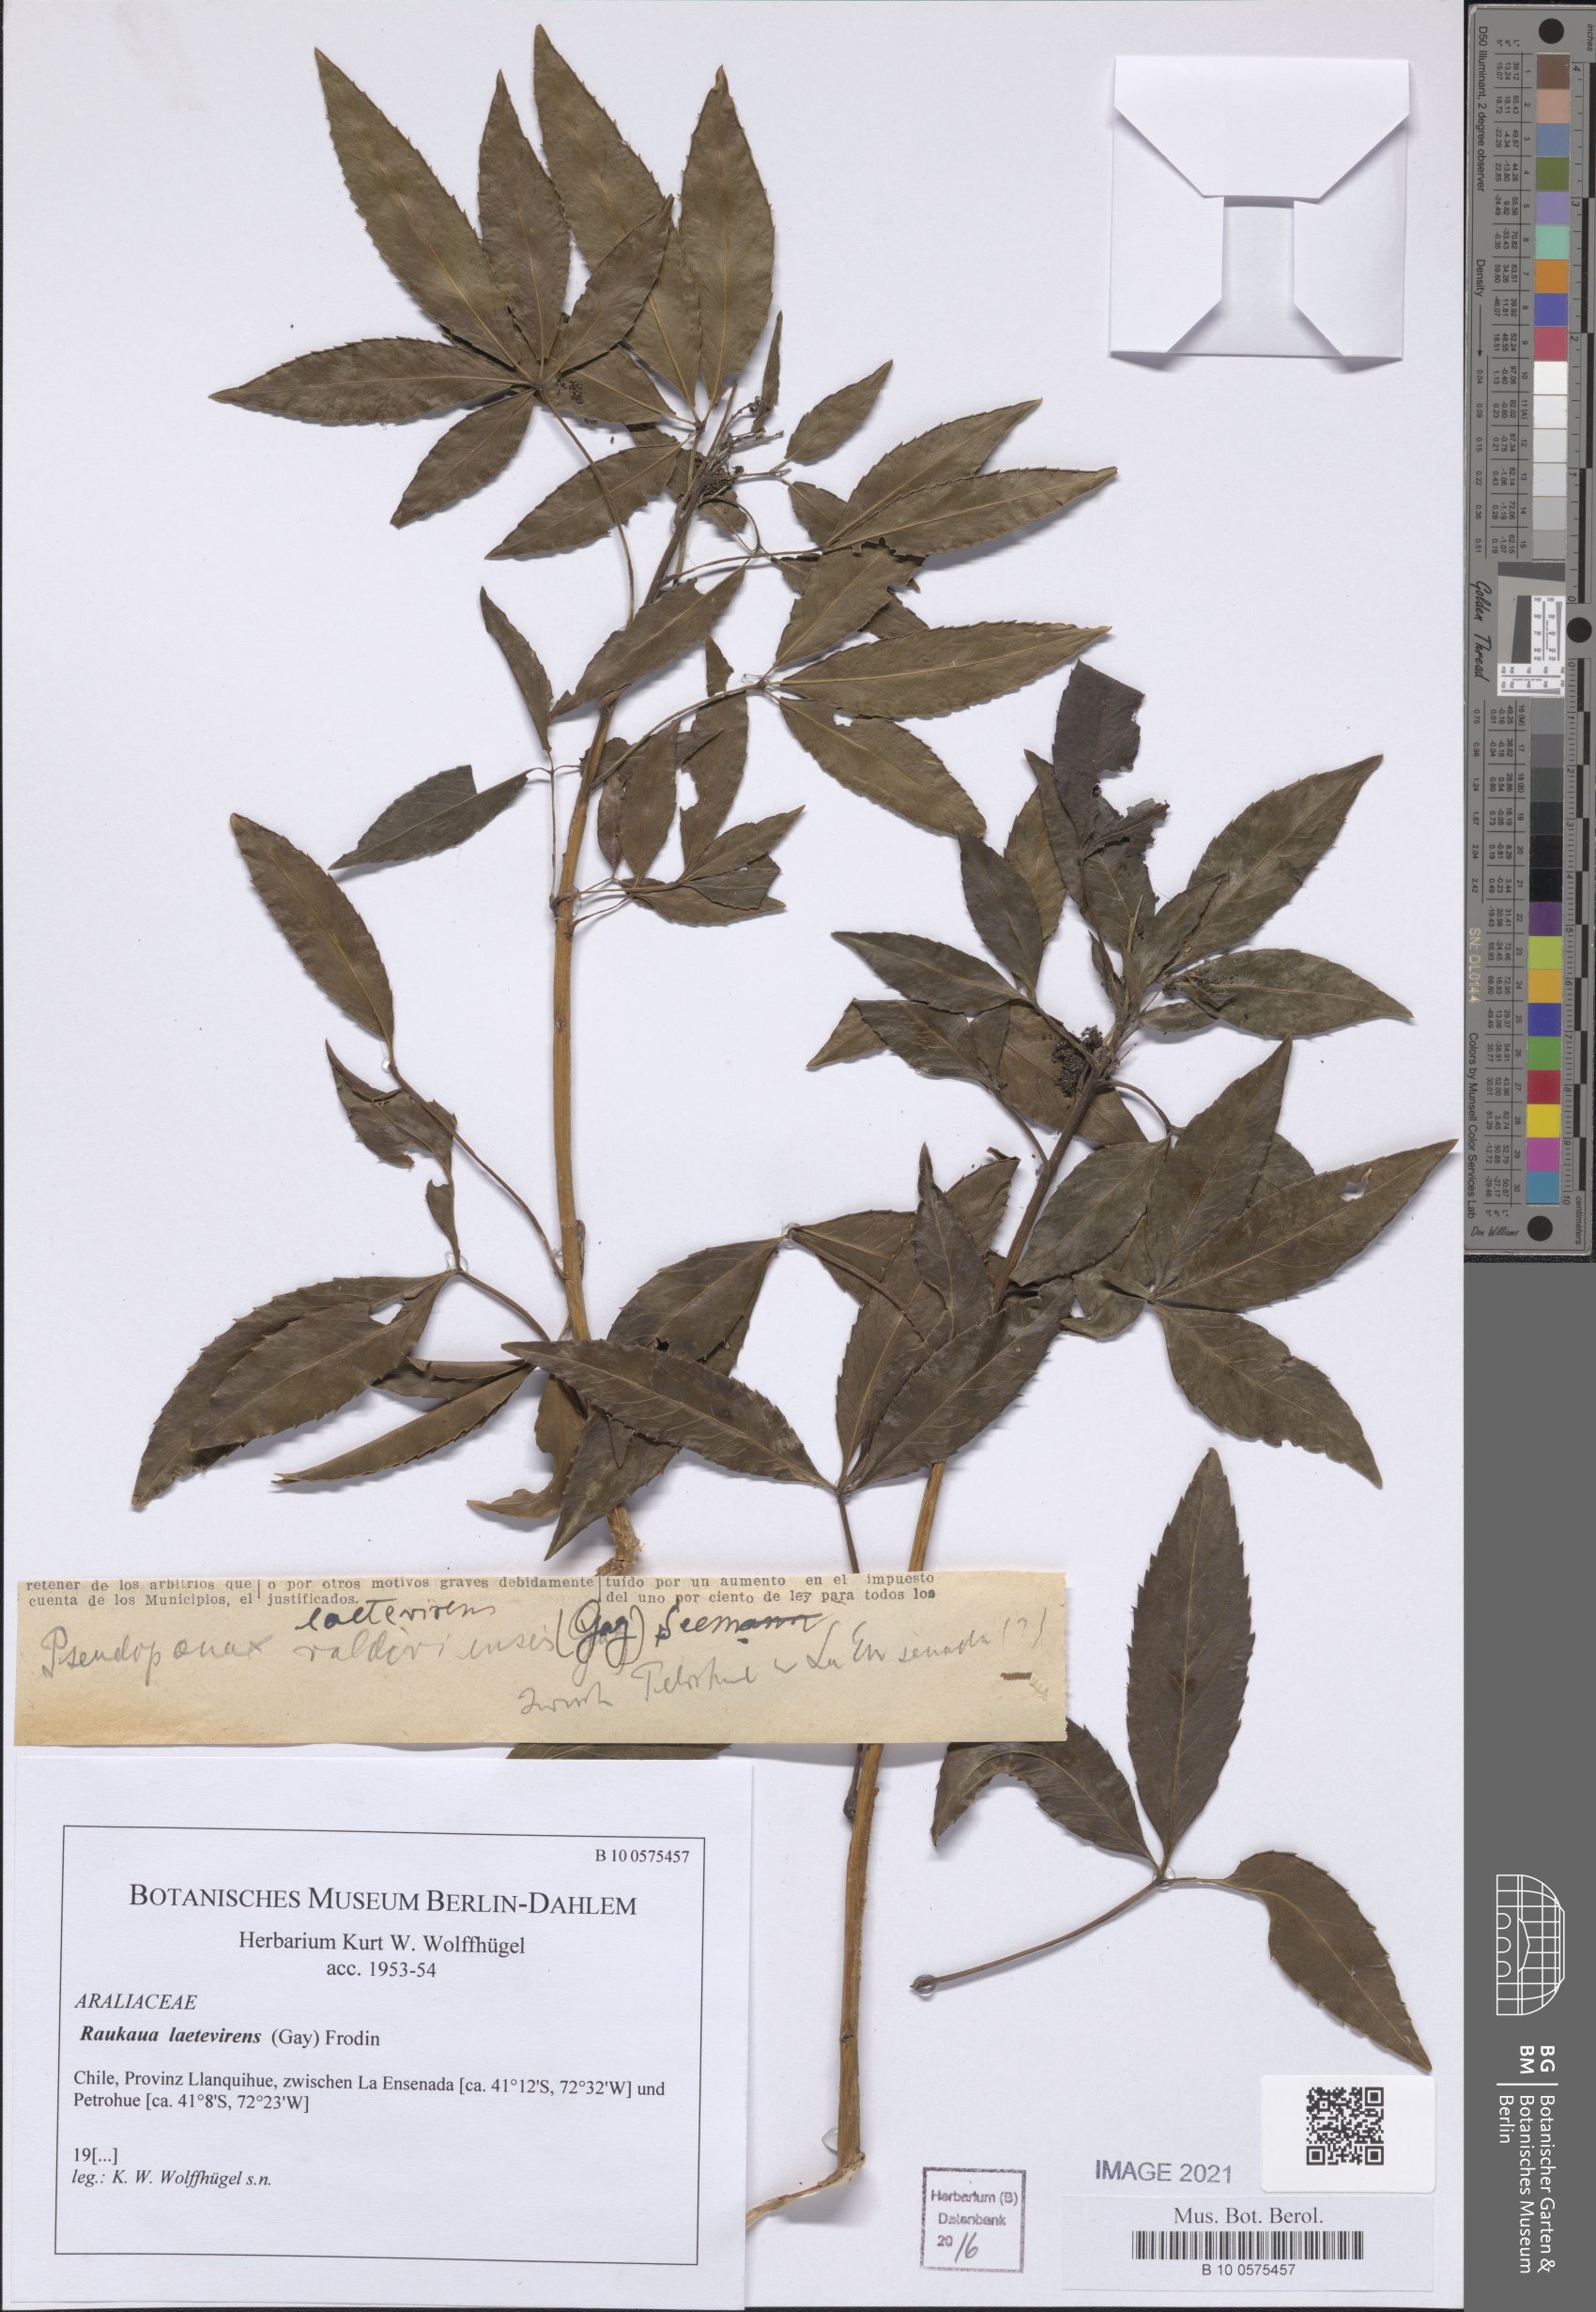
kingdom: Plantae
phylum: Tracheophyta
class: Magnoliopsida
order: Apiales
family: Araliaceae
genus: Raukaua
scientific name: Raukaua laetevirens
